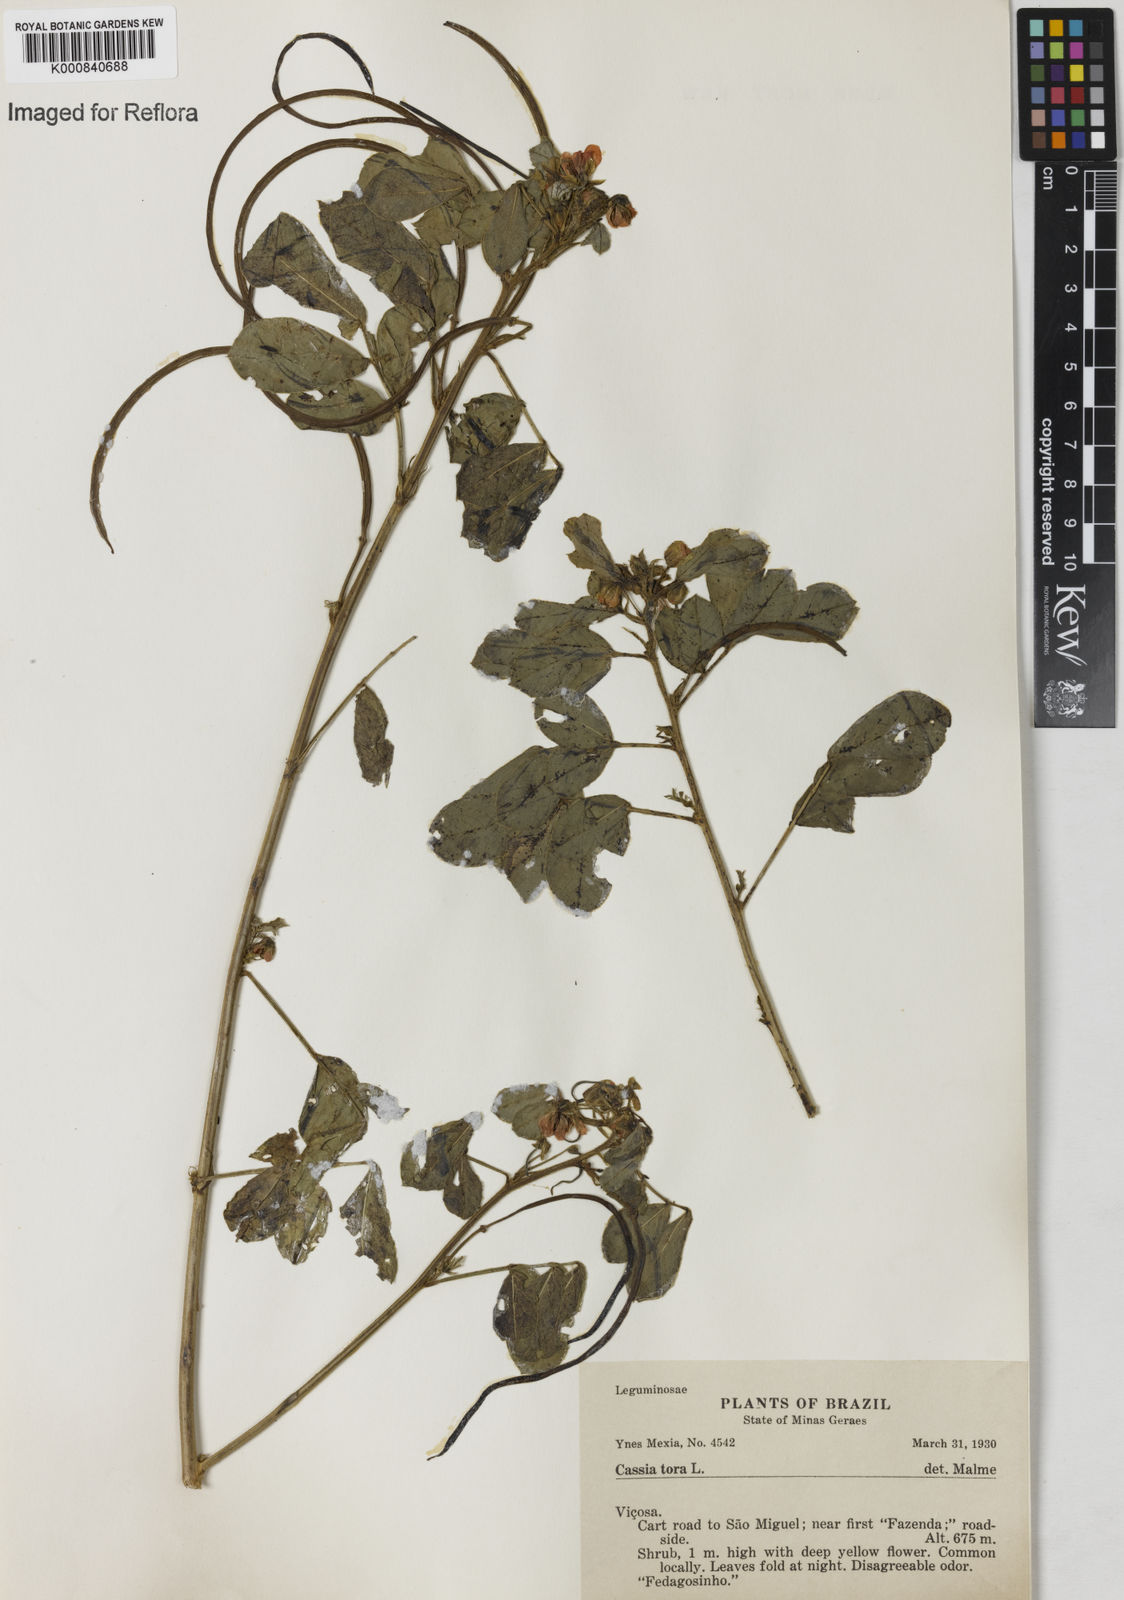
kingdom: Plantae
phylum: Tracheophyta
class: Magnoliopsida
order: Fabales
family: Fabaceae
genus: Senna
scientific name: Senna obtusifolia
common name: Java-bean
